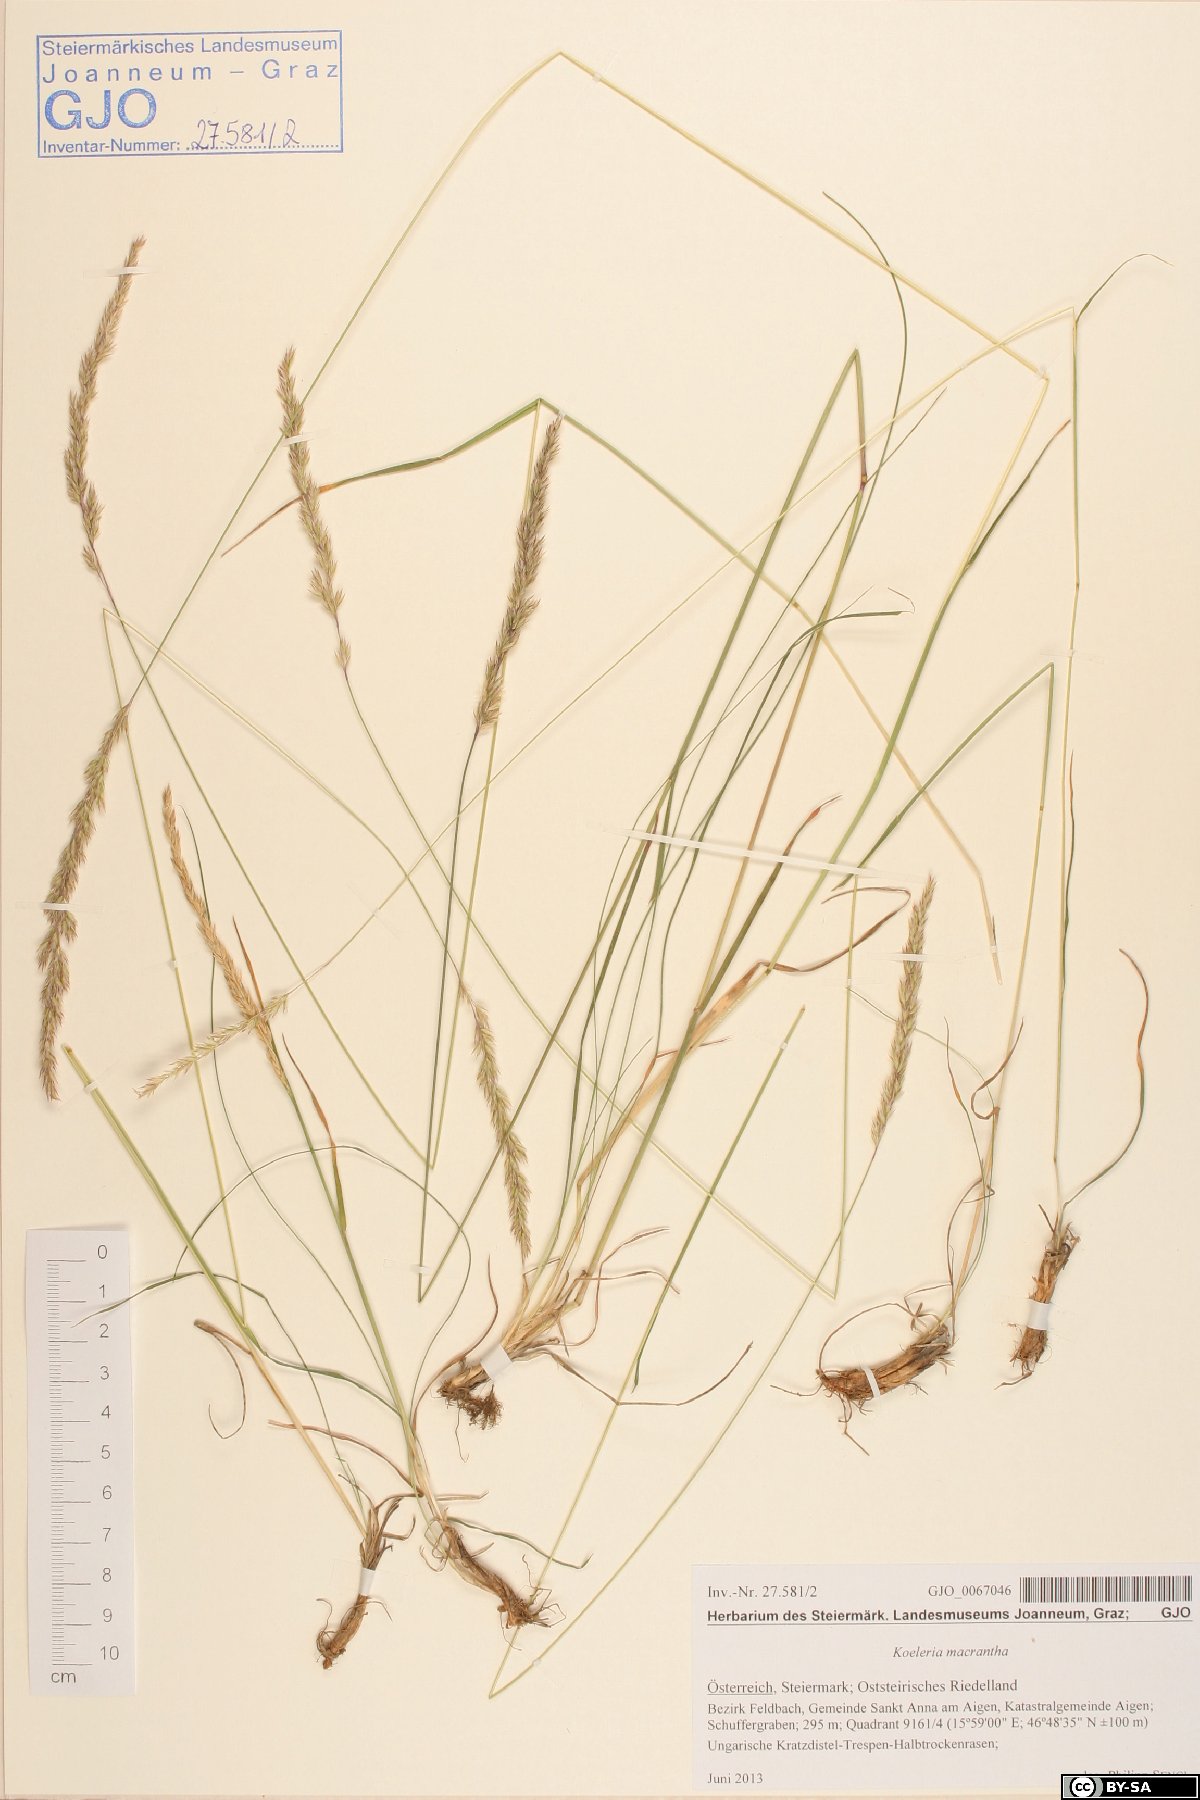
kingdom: Plantae
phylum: Tracheophyta
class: Liliopsida
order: Poales
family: Poaceae
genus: Koeleria
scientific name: Koeleria macrantha
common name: Crested hair-grass
